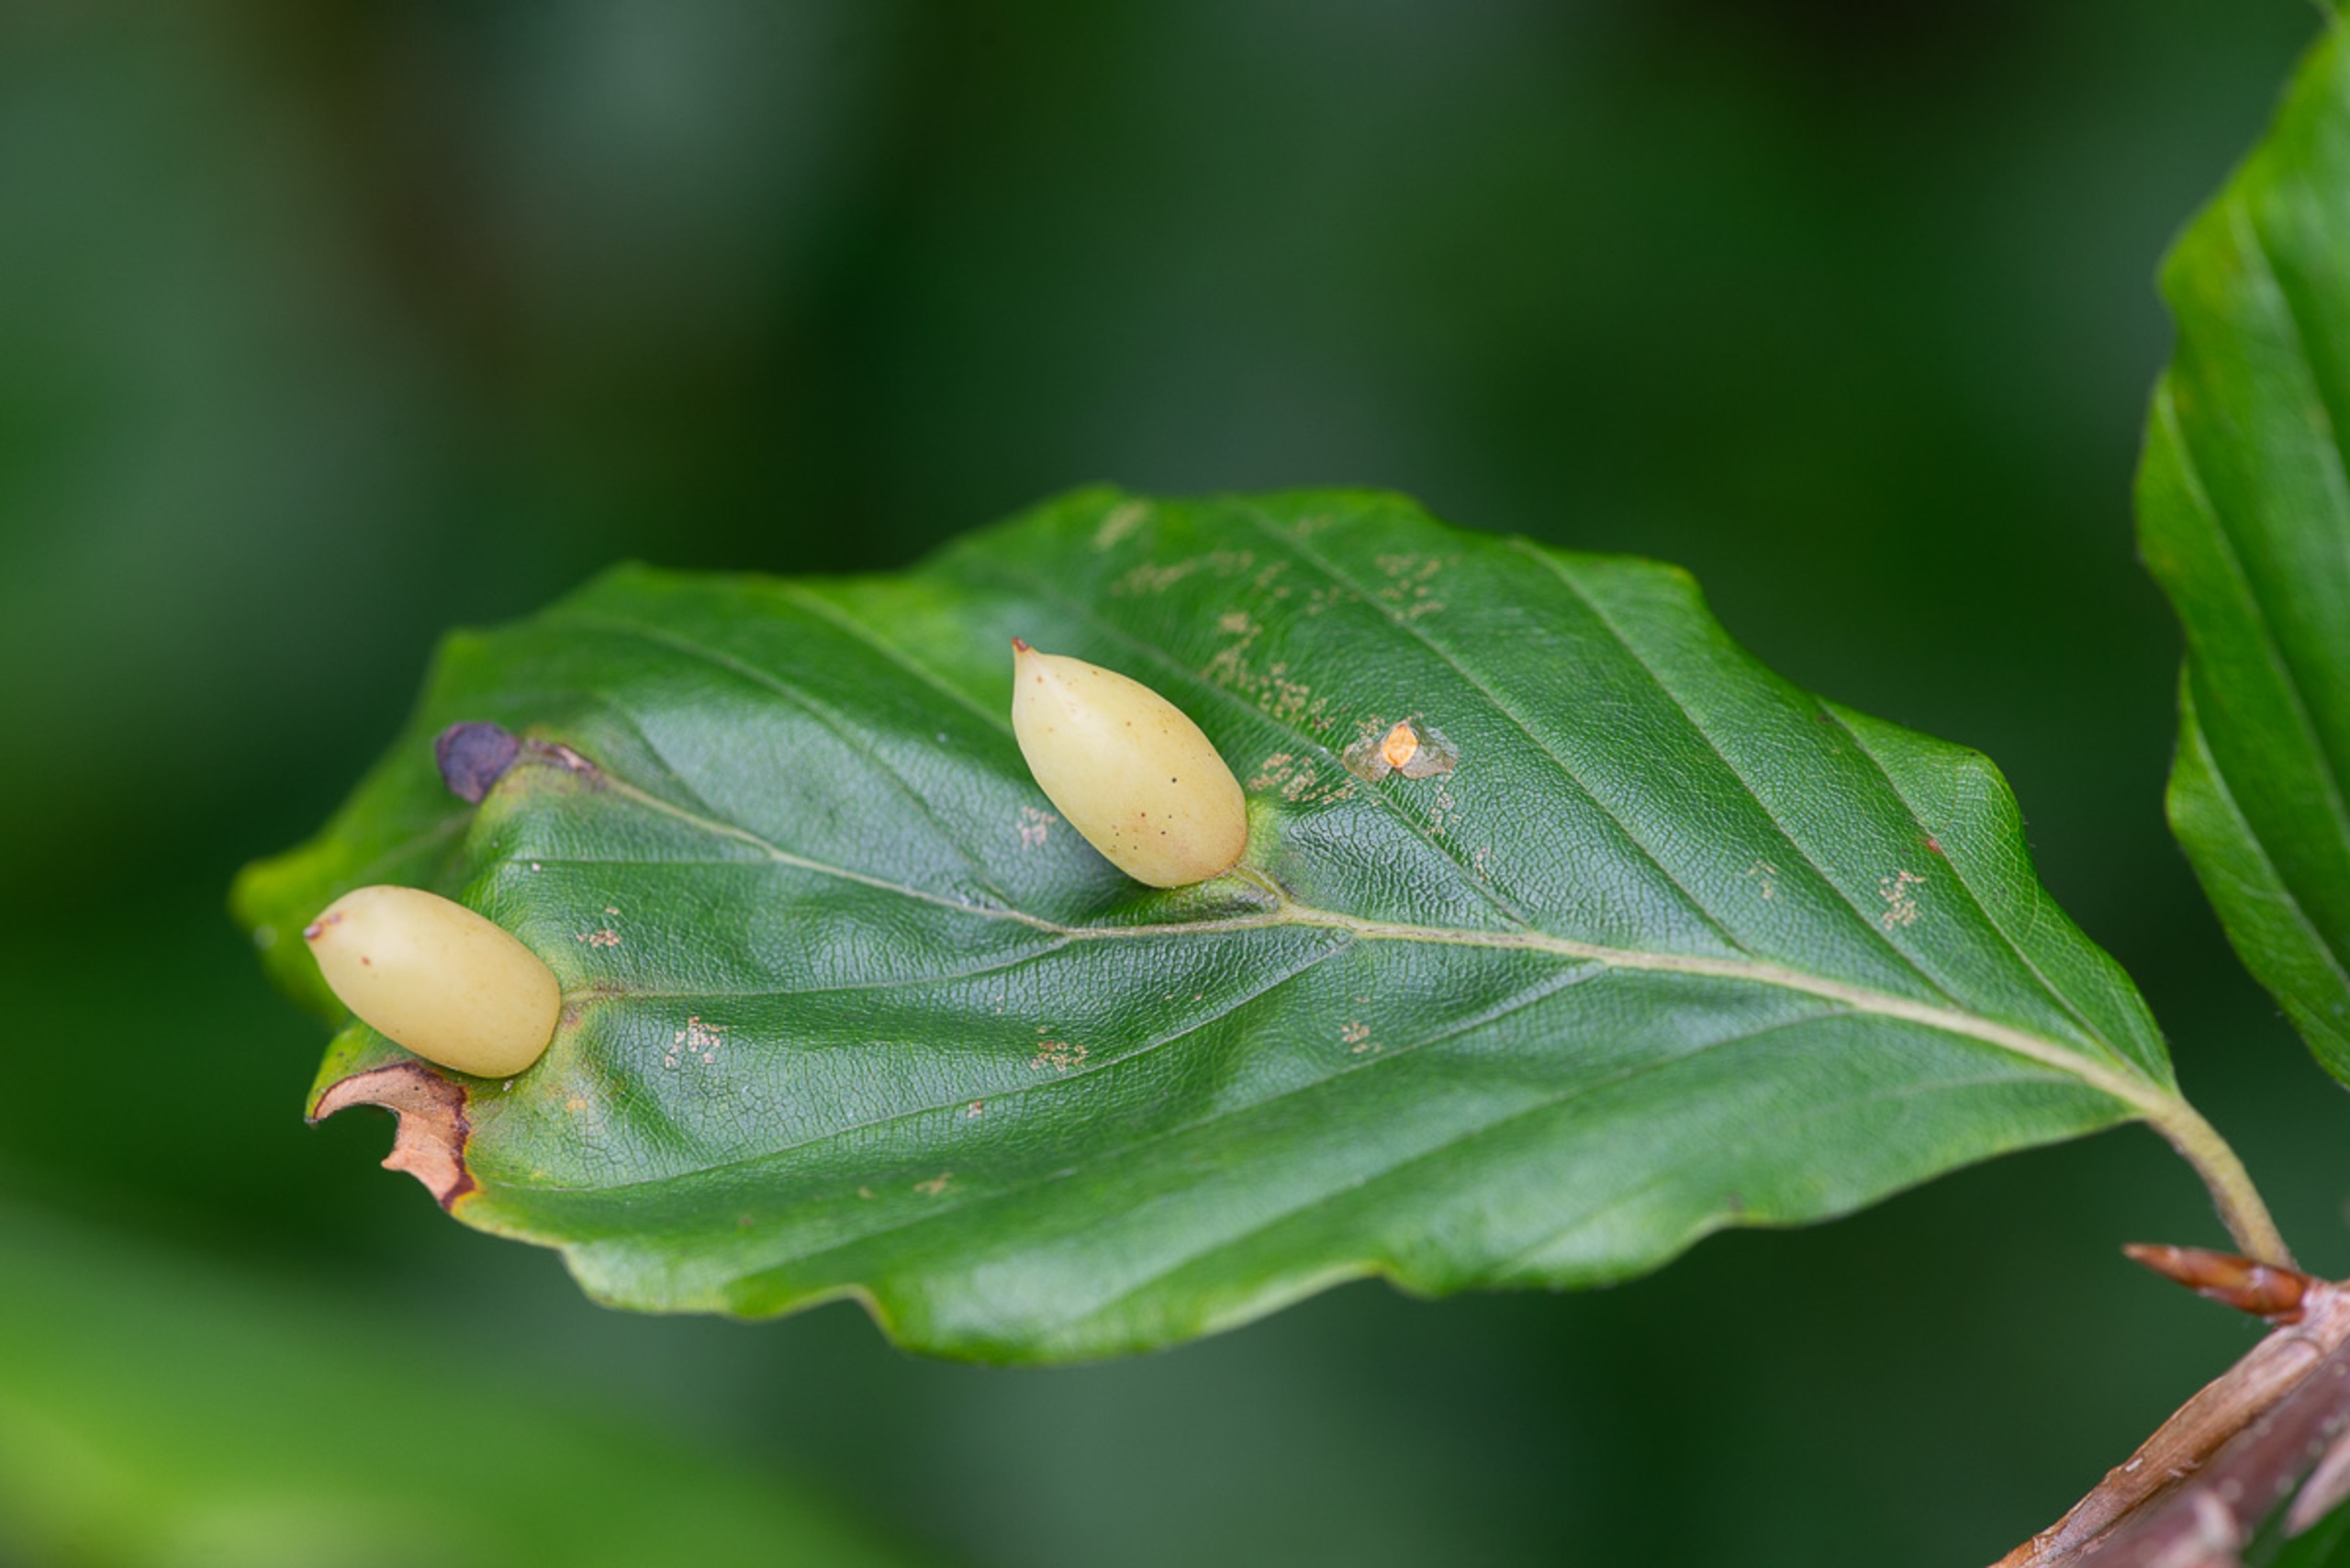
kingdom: Animalia
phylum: Arthropoda
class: Insecta
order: Diptera
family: Cecidomyiidae
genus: Mikiola
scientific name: Mikiola fagi
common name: Bøgegalmyg
